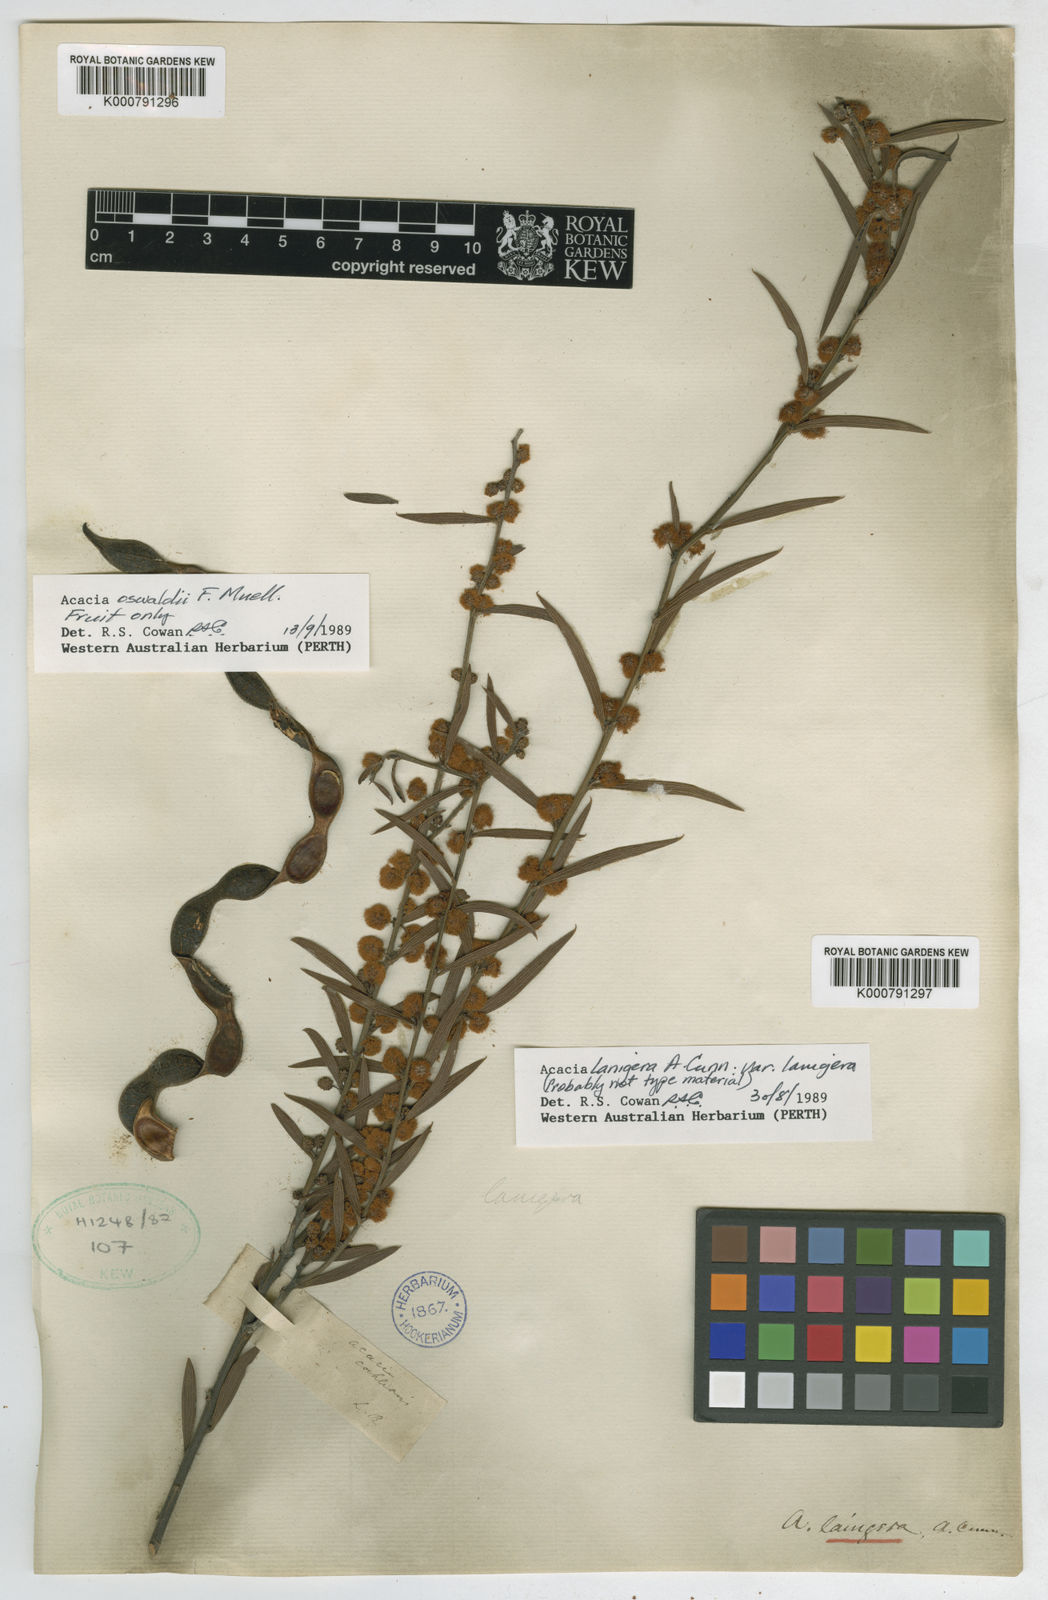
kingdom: Plantae
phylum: Tracheophyta
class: Magnoliopsida
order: Fabales
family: Fabaceae
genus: Acacia
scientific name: Acacia lanigera
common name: Hairy wattle
